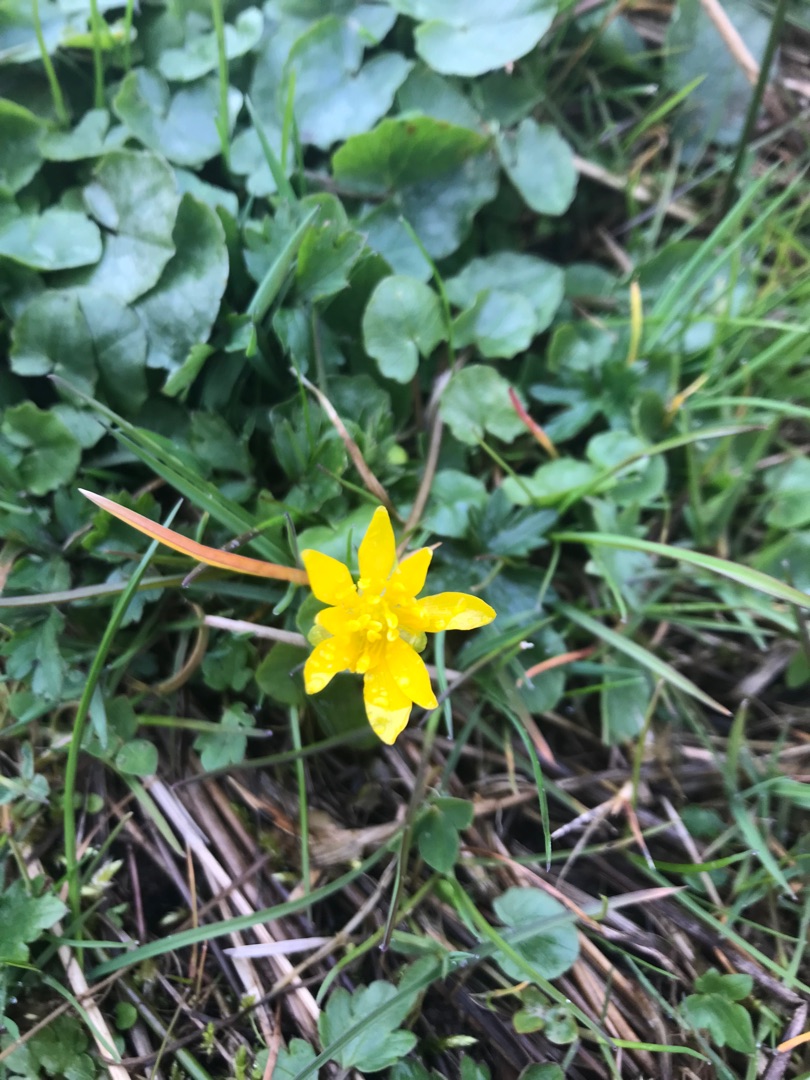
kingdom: Plantae
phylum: Tracheophyta
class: Magnoliopsida
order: Ranunculales
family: Ranunculaceae
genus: Ficaria
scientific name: Ficaria verna
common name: Vorterod
